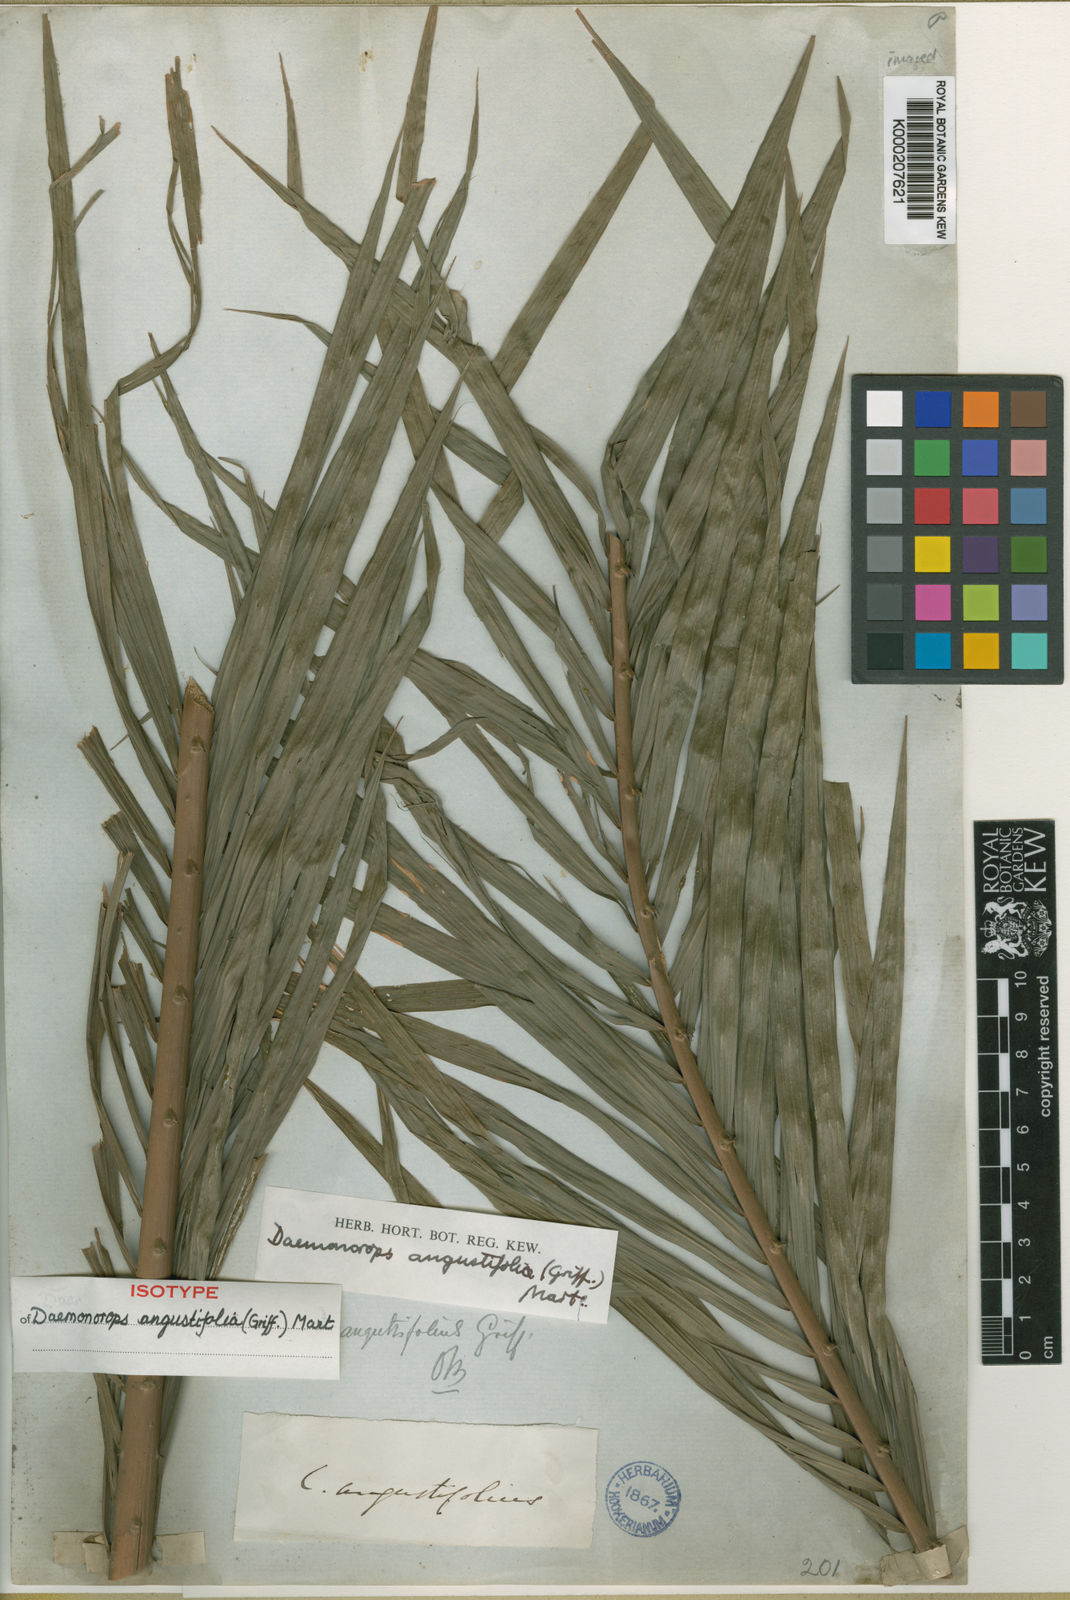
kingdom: Plantae
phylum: Tracheophyta
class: Liliopsida
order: Arecales
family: Arecaceae
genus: Calamus
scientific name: Calamus melanochaetes
